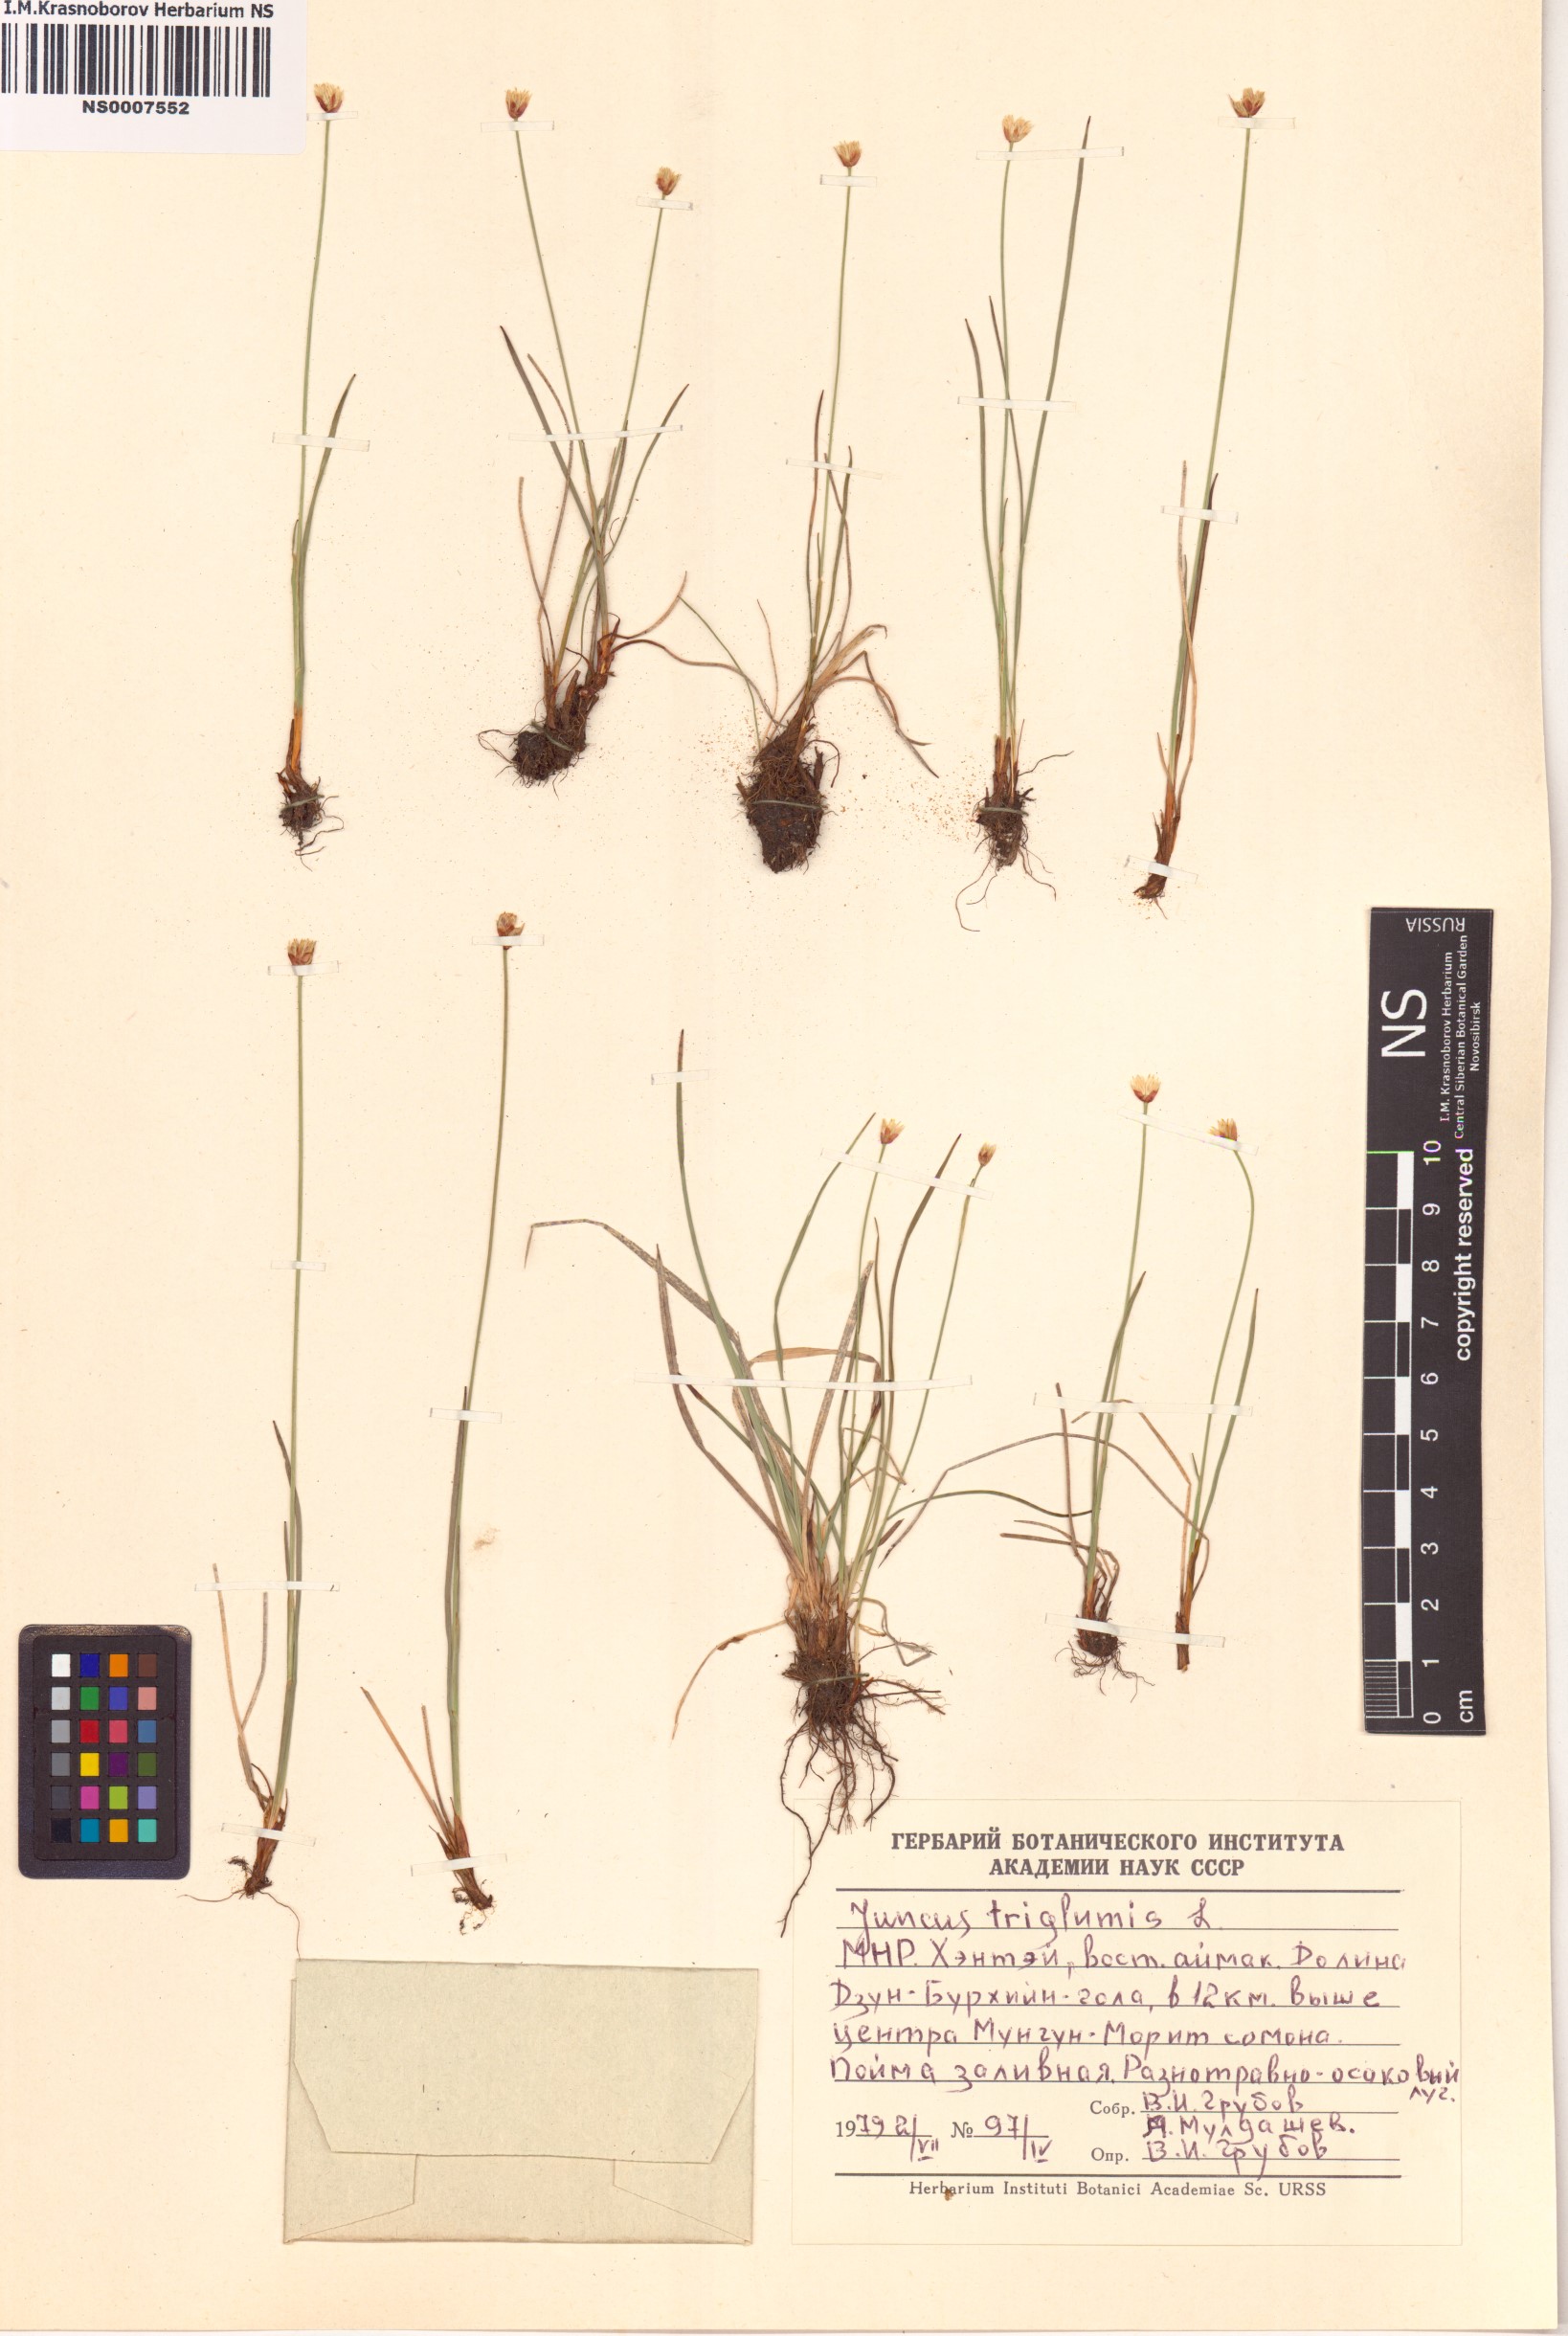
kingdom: Plantae
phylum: Tracheophyta
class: Liliopsida
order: Poales
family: Juncaceae
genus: Juncus
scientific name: Juncus triglumis
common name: Three-flowered rush
